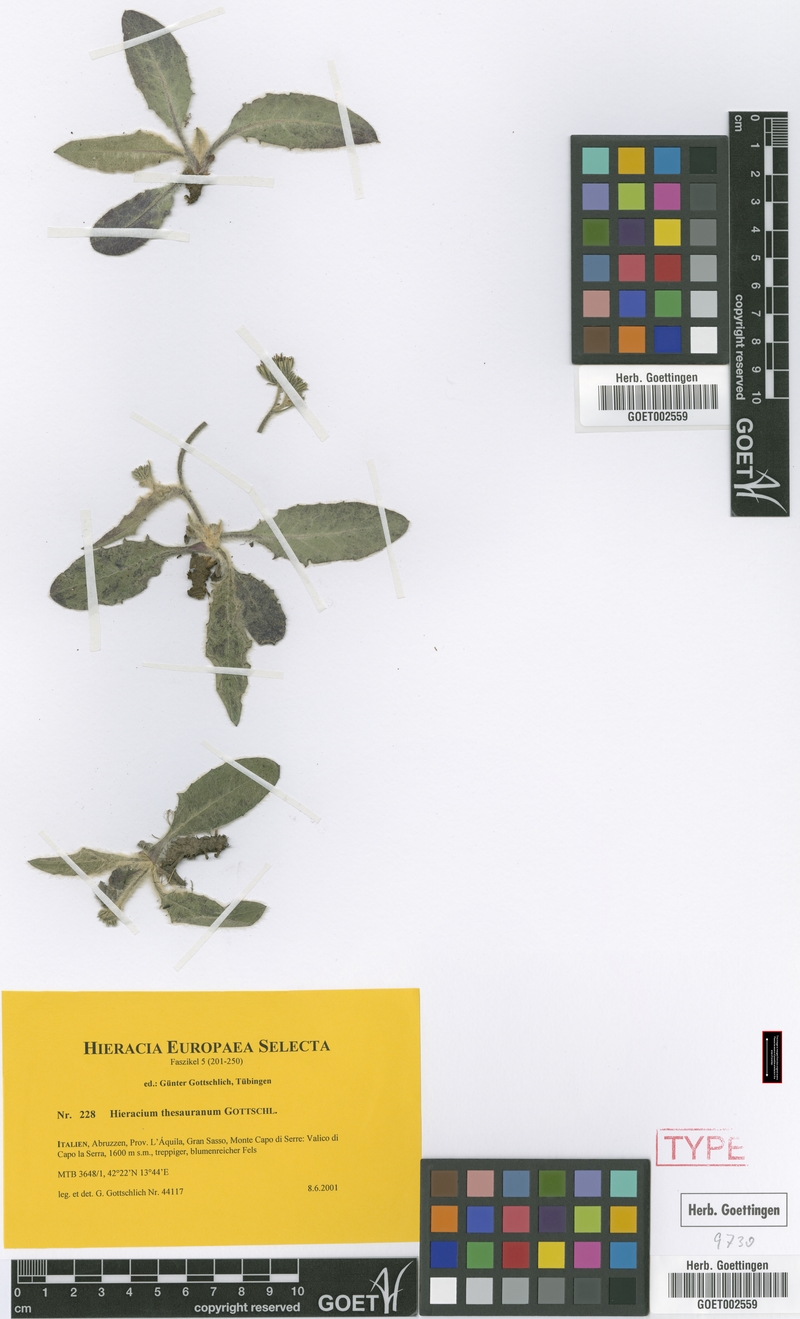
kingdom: Plantae
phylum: Tracheophyta
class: Magnoliopsida
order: Asterales
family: Asteraceae
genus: Hieracium
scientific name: Hieracium thesauranum
